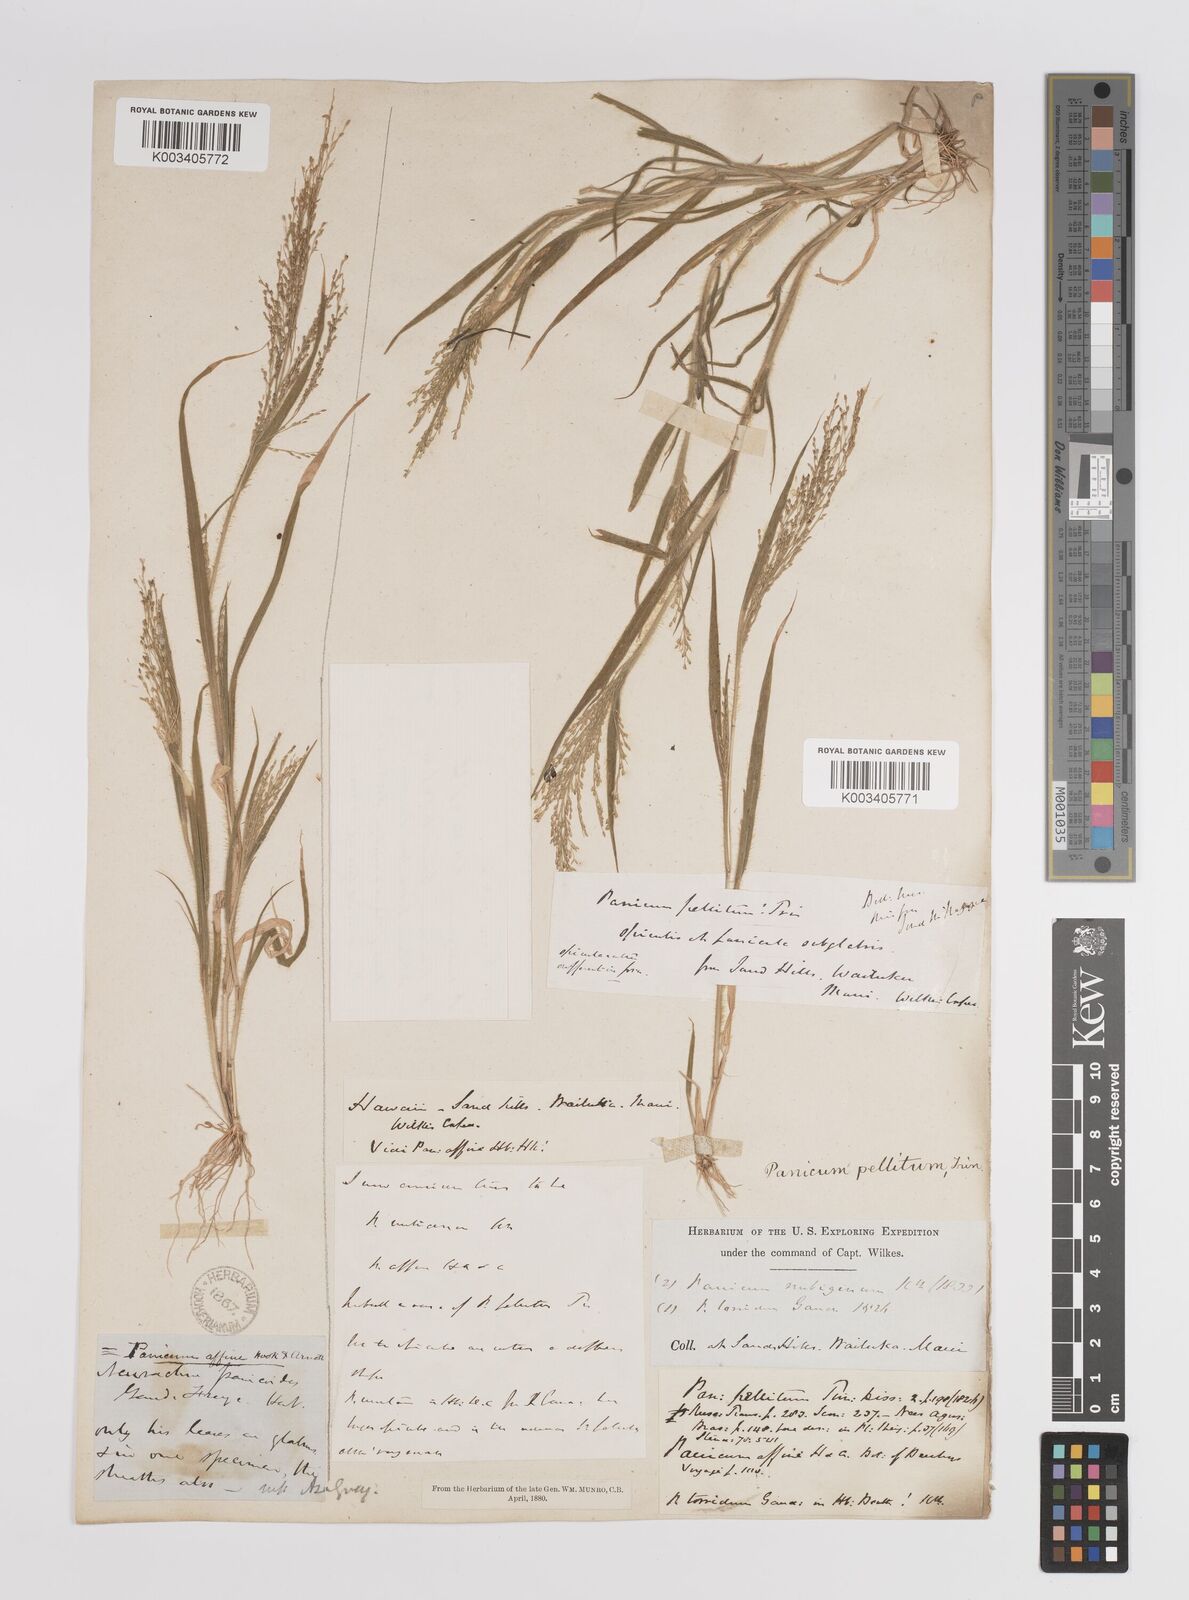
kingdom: Plantae
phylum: Tracheophyta
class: Liliopsida
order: Poales
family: Poaceae
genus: Panicum
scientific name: Panicum pellitum
